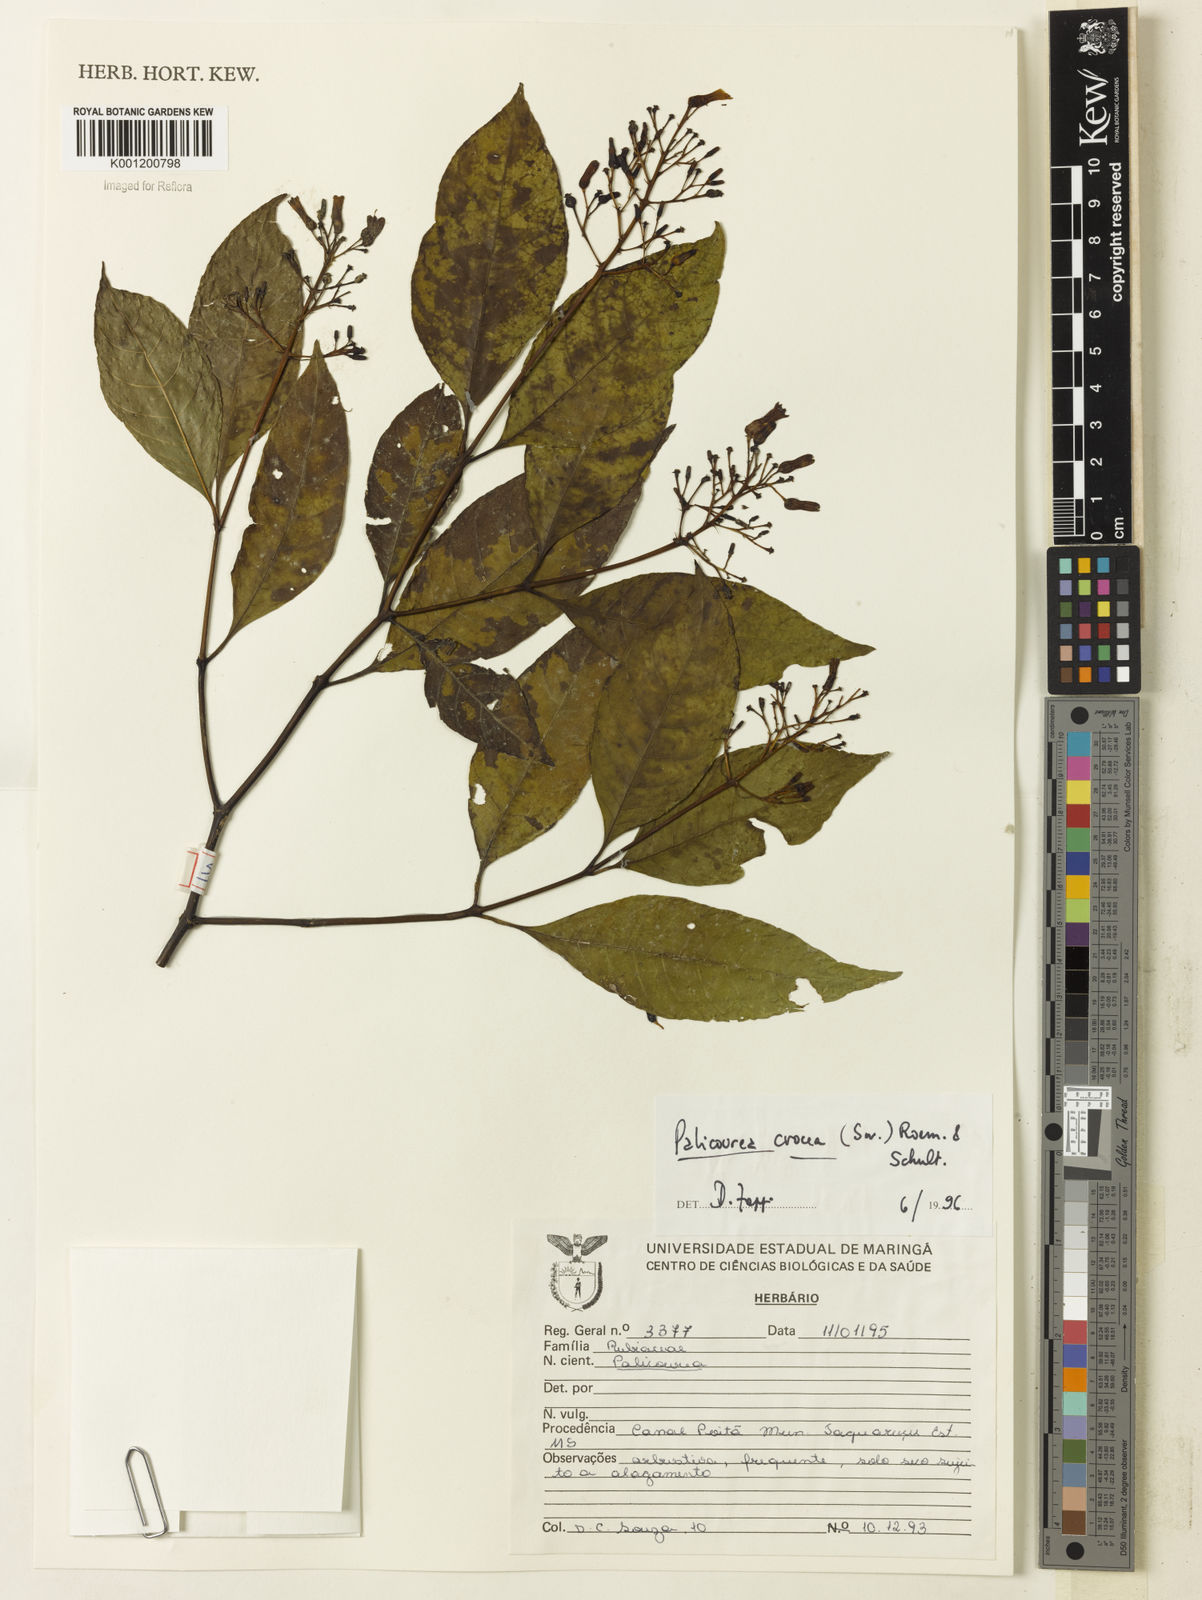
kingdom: Plantae
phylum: Tracheophyta
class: Magnoliopsida
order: Gentianales
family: Rubiaceae
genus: Palicourea
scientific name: Palicourea crocea
